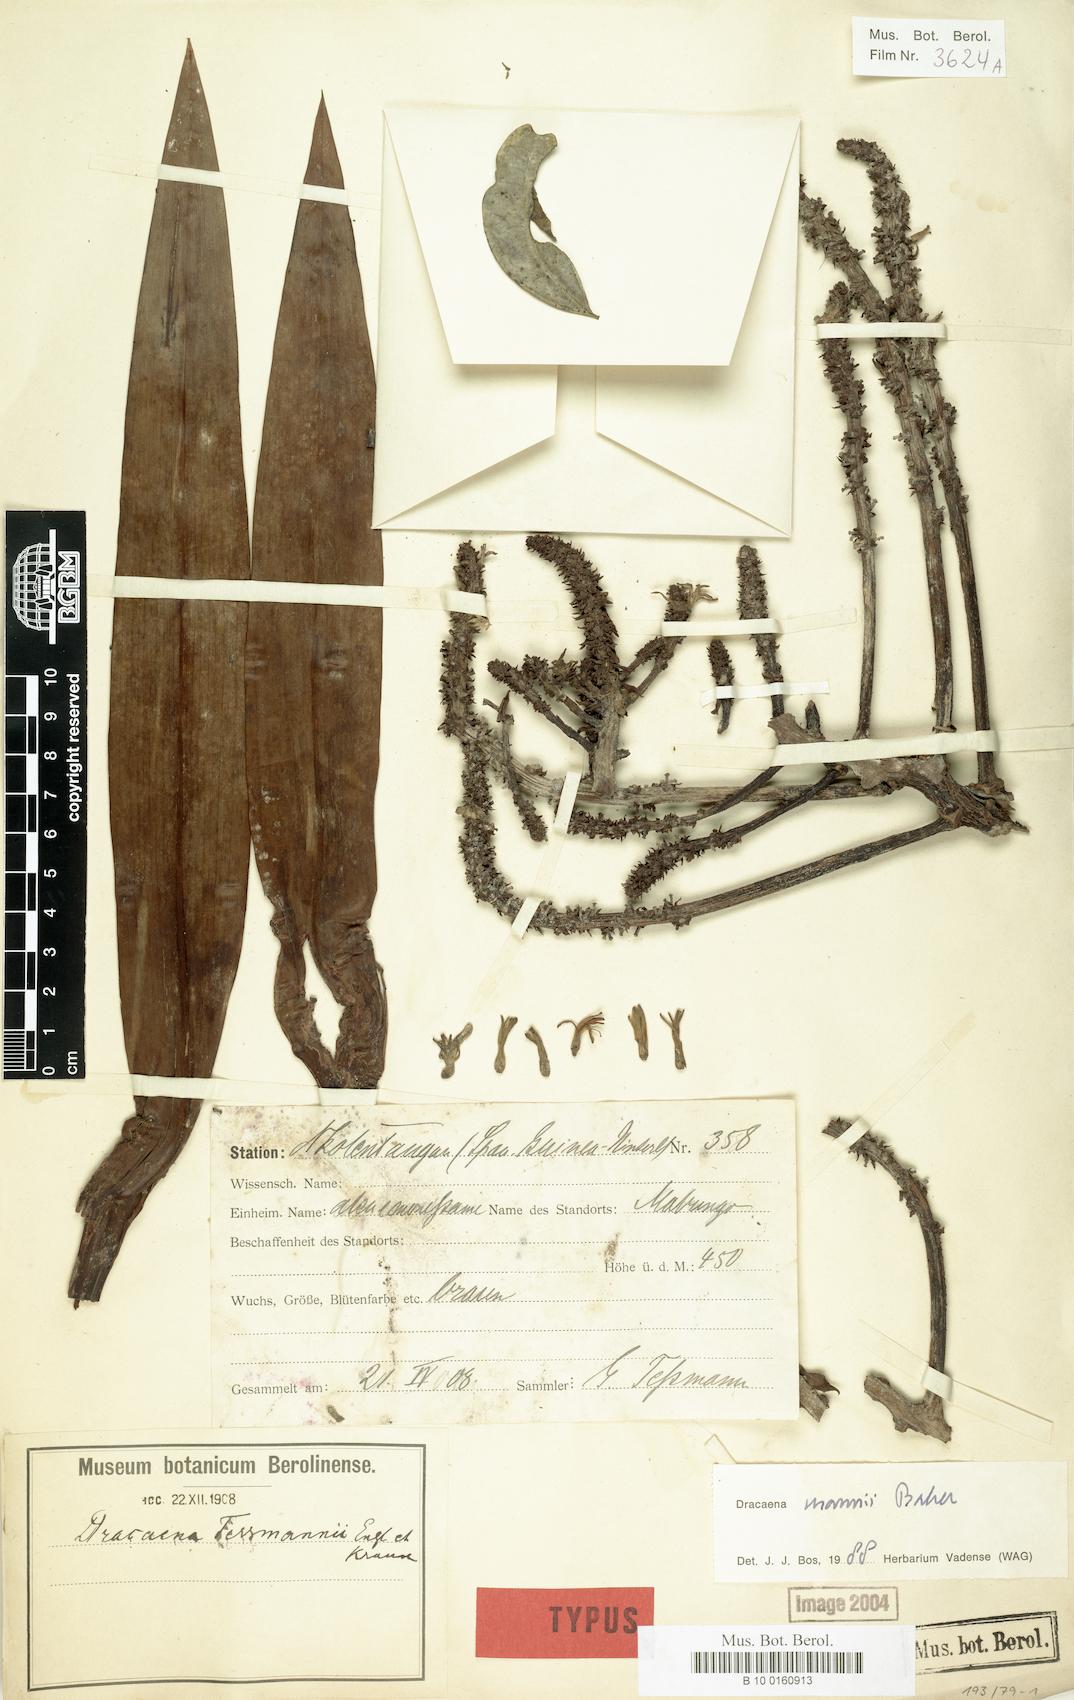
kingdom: Plantae
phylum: Tracheophyta
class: Liliopsida
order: Asparagales
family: Asparagaceae
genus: Dracaena
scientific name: Dracaena mannii
